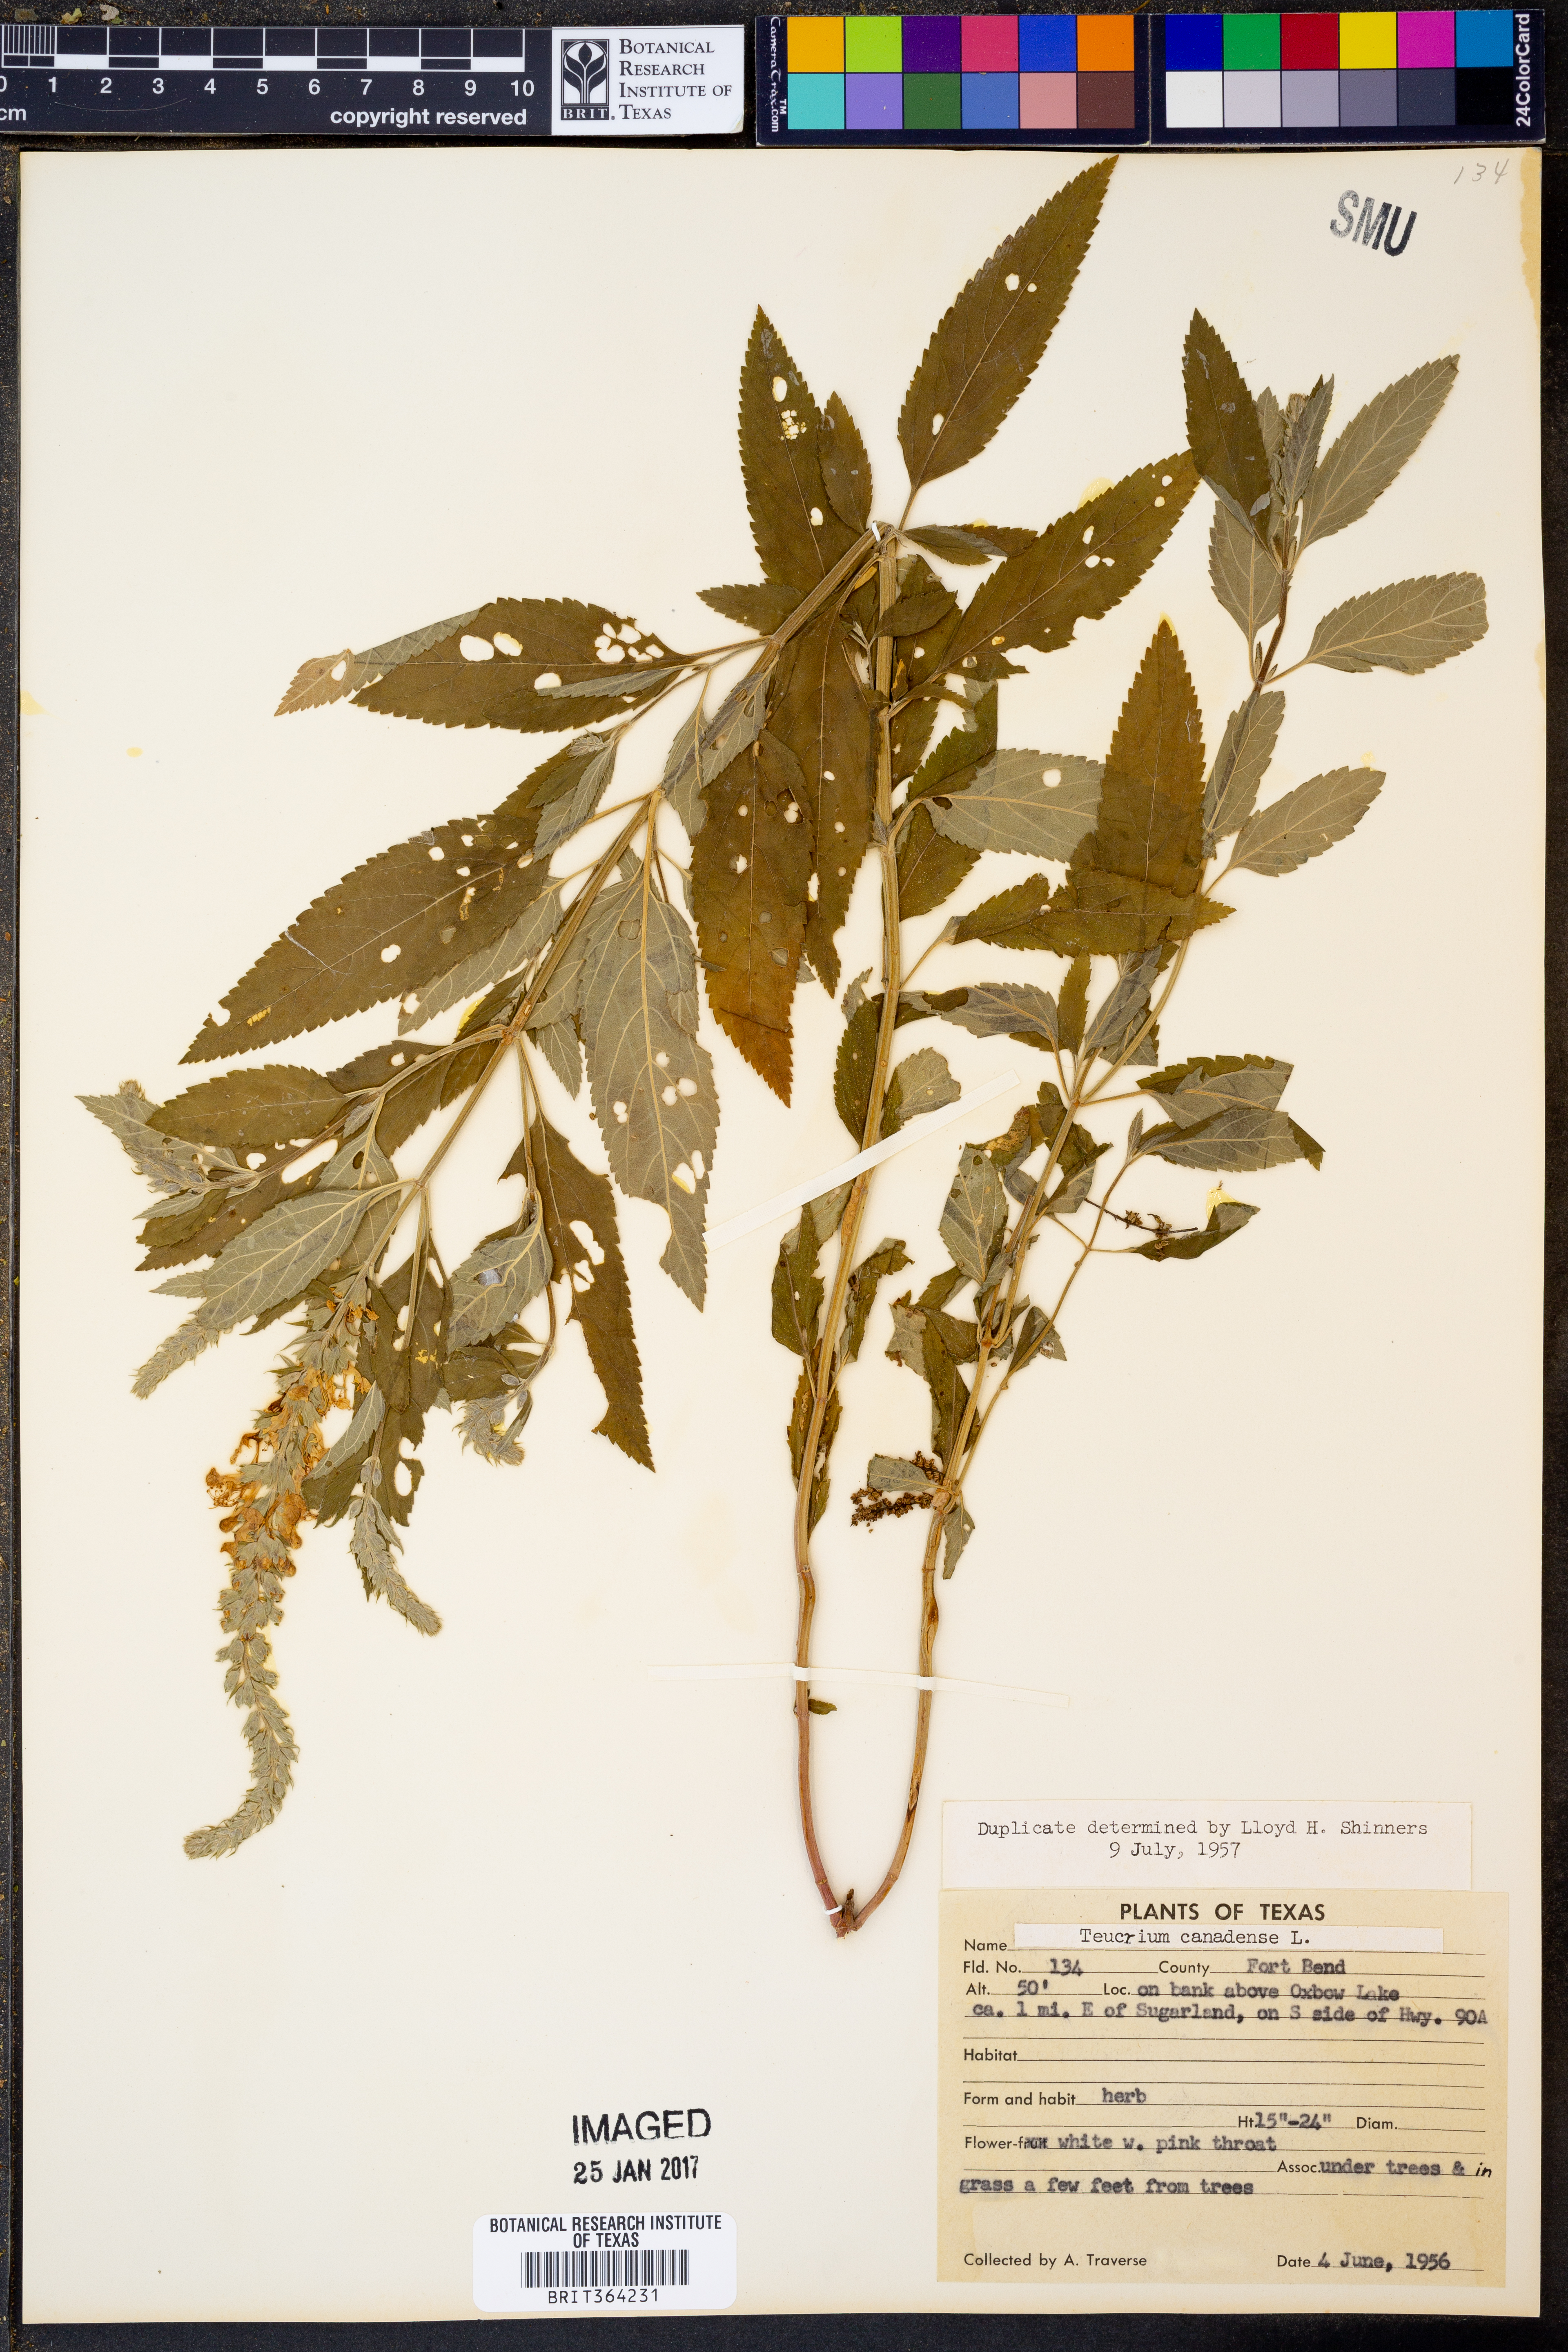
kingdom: Plantae
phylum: Tracheophyta
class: Magnoliopsida
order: Lamiales
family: Lamiaceae
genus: Teucrium
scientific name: Teucrium canadense
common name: American germander
